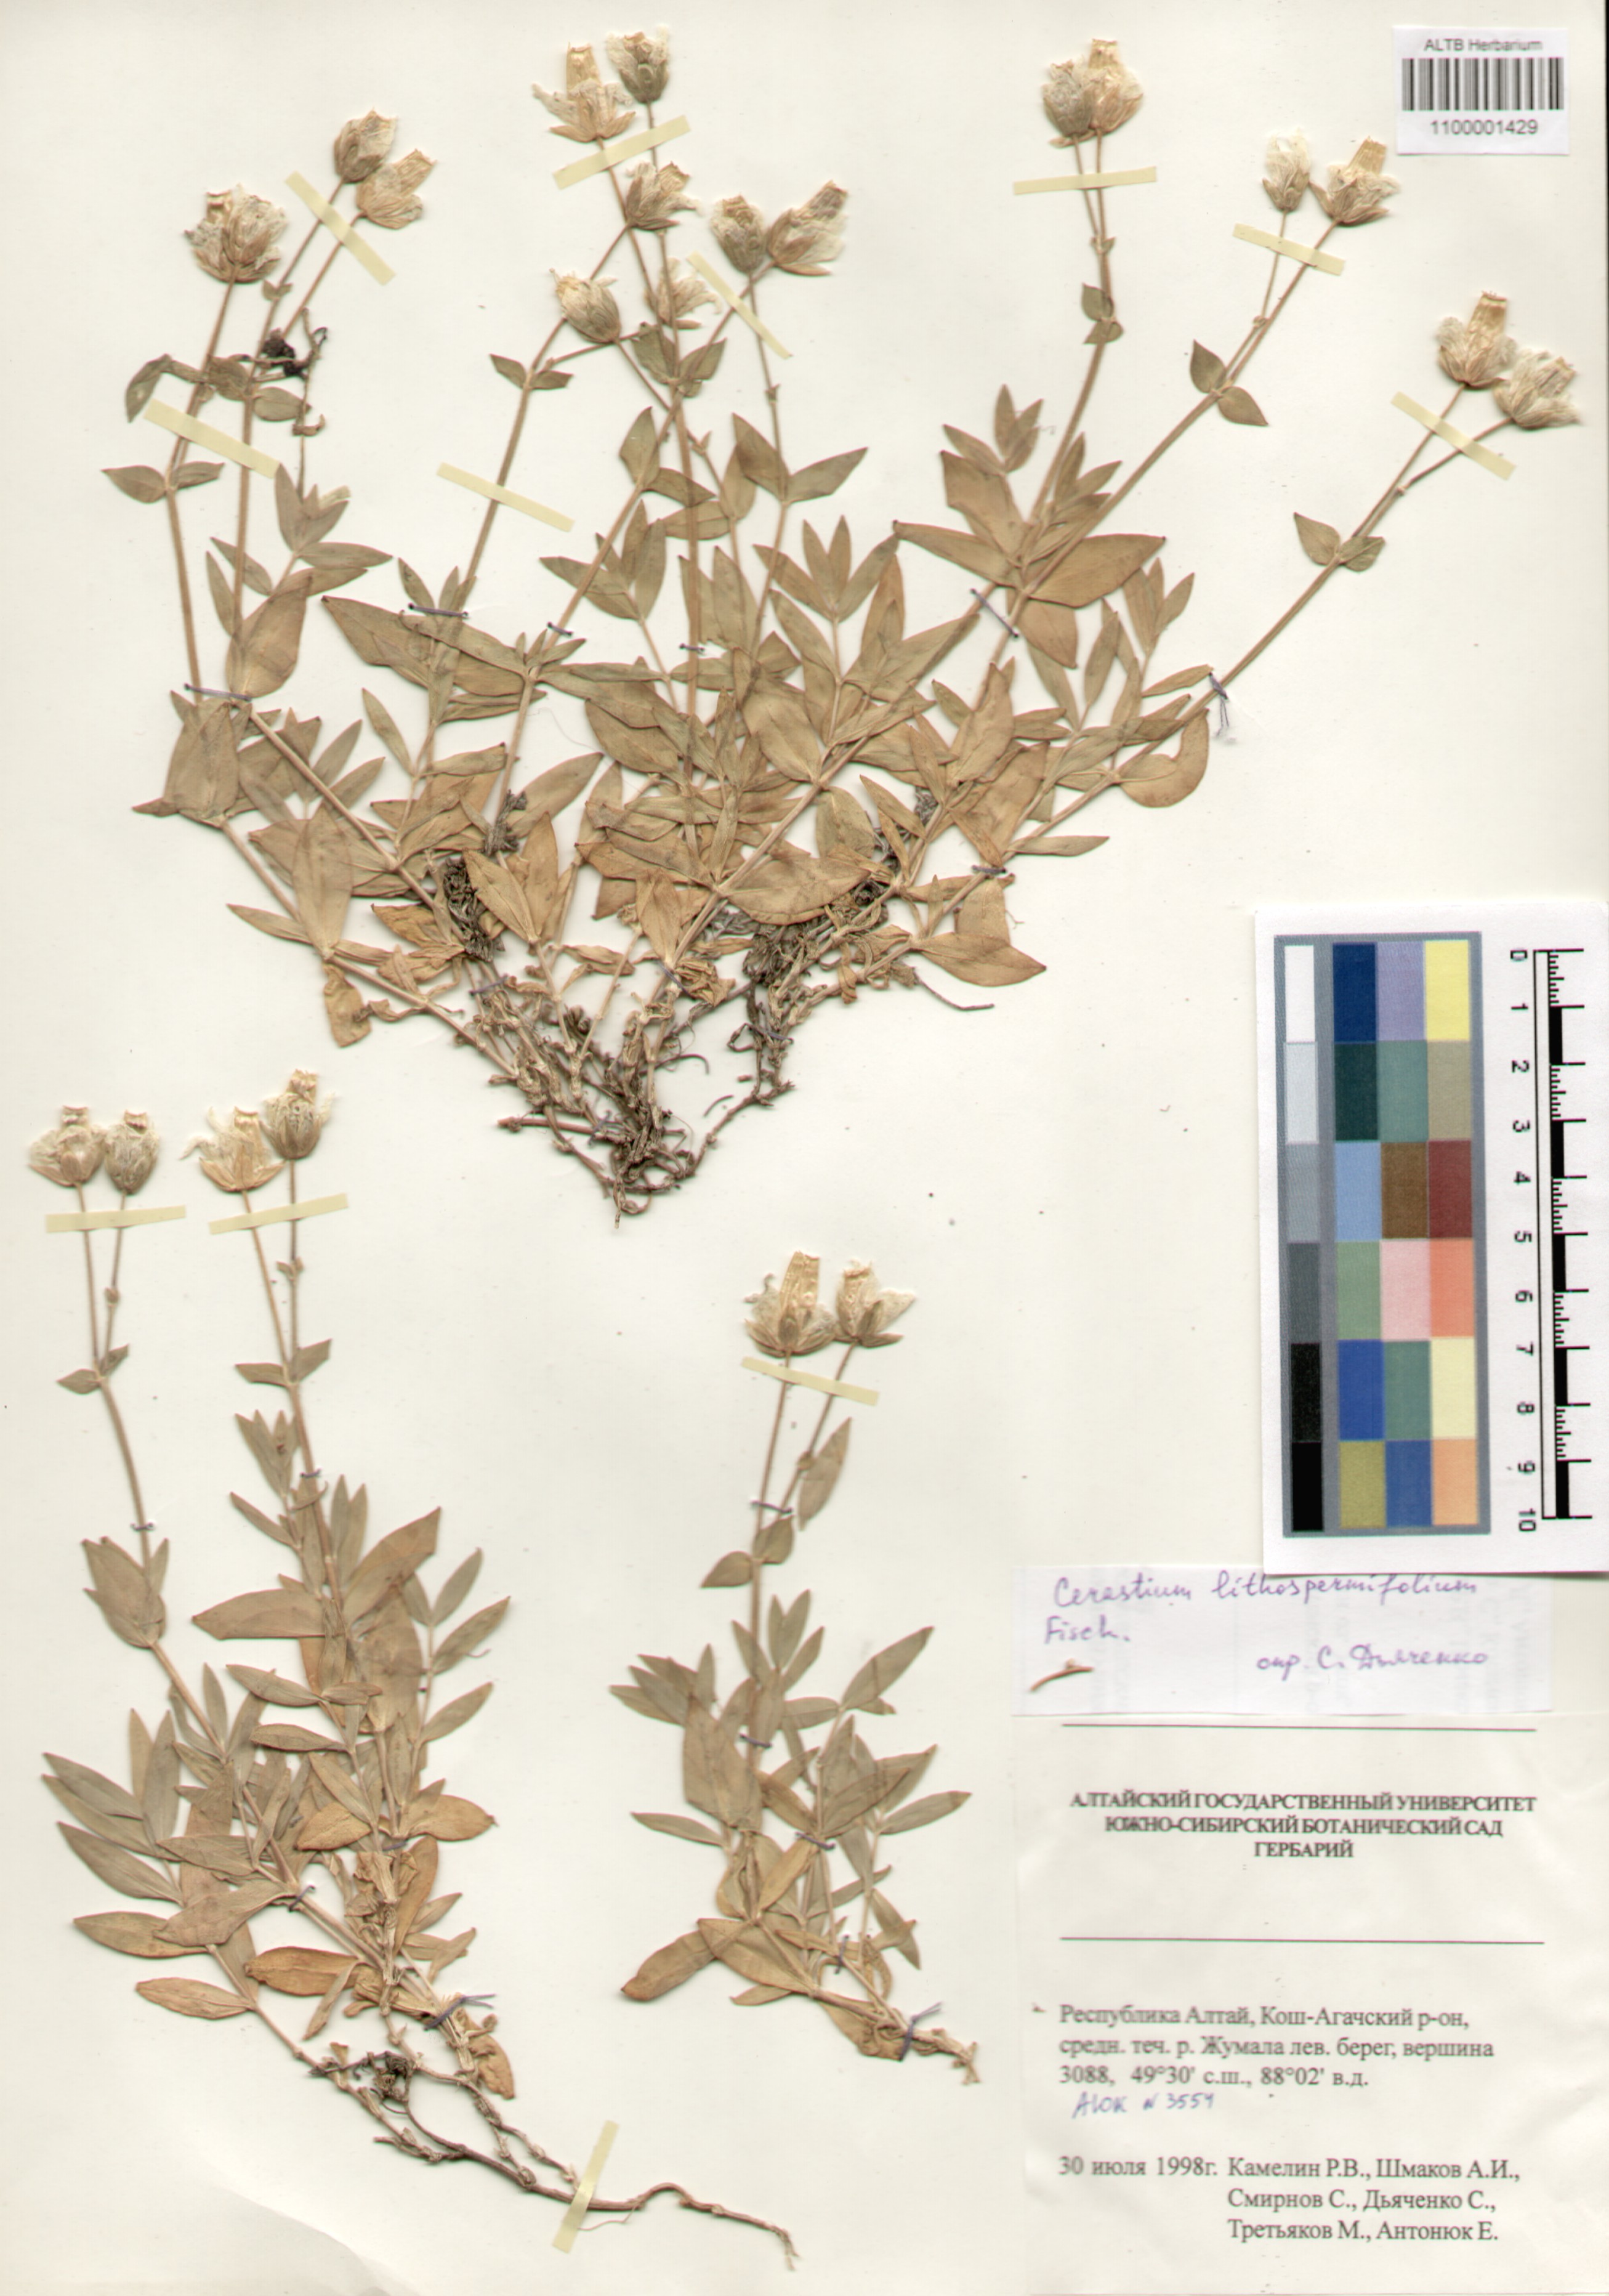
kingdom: Plantae
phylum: Tracheophyta
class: Magnoliopsida
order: Caryophyllales
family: Caryophyllaceae
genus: Cerastium
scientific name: Cerastium lithospermifolium
